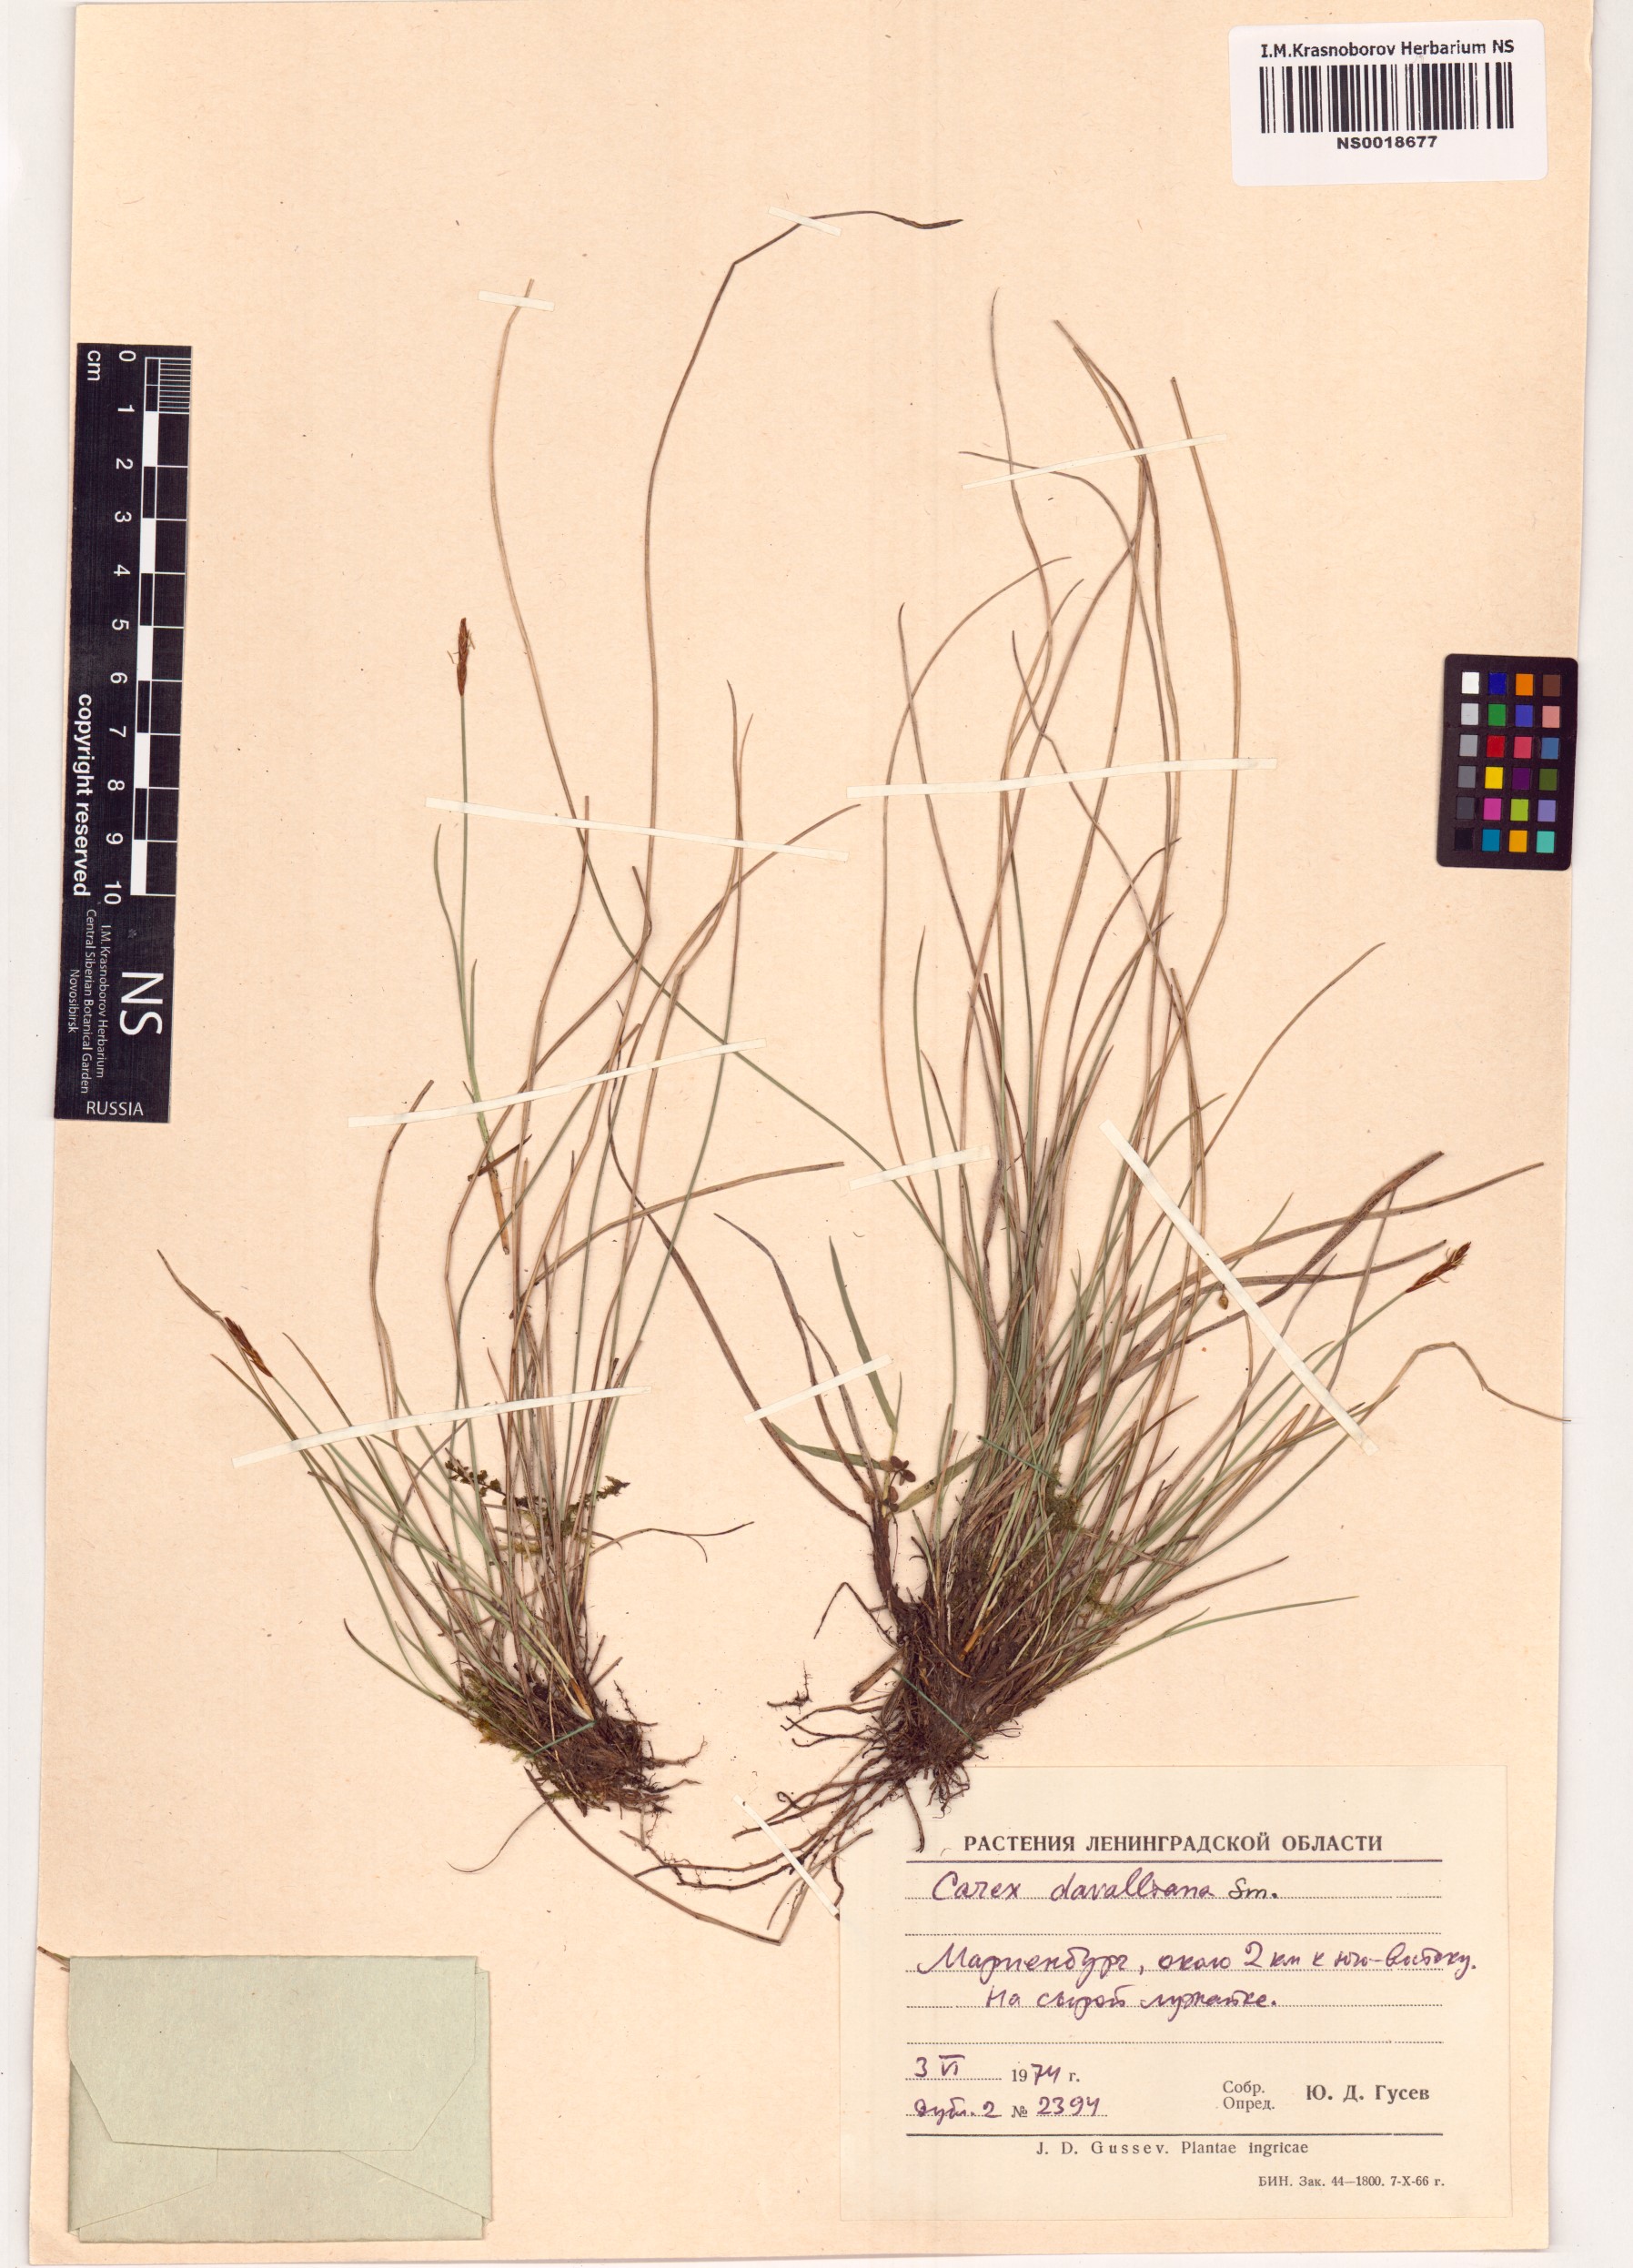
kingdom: Plantae
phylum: Tracheophyta
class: Liliopsida
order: Poales
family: Cyperaceae
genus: Carex
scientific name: Carex davalliana
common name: Davall's sedge
